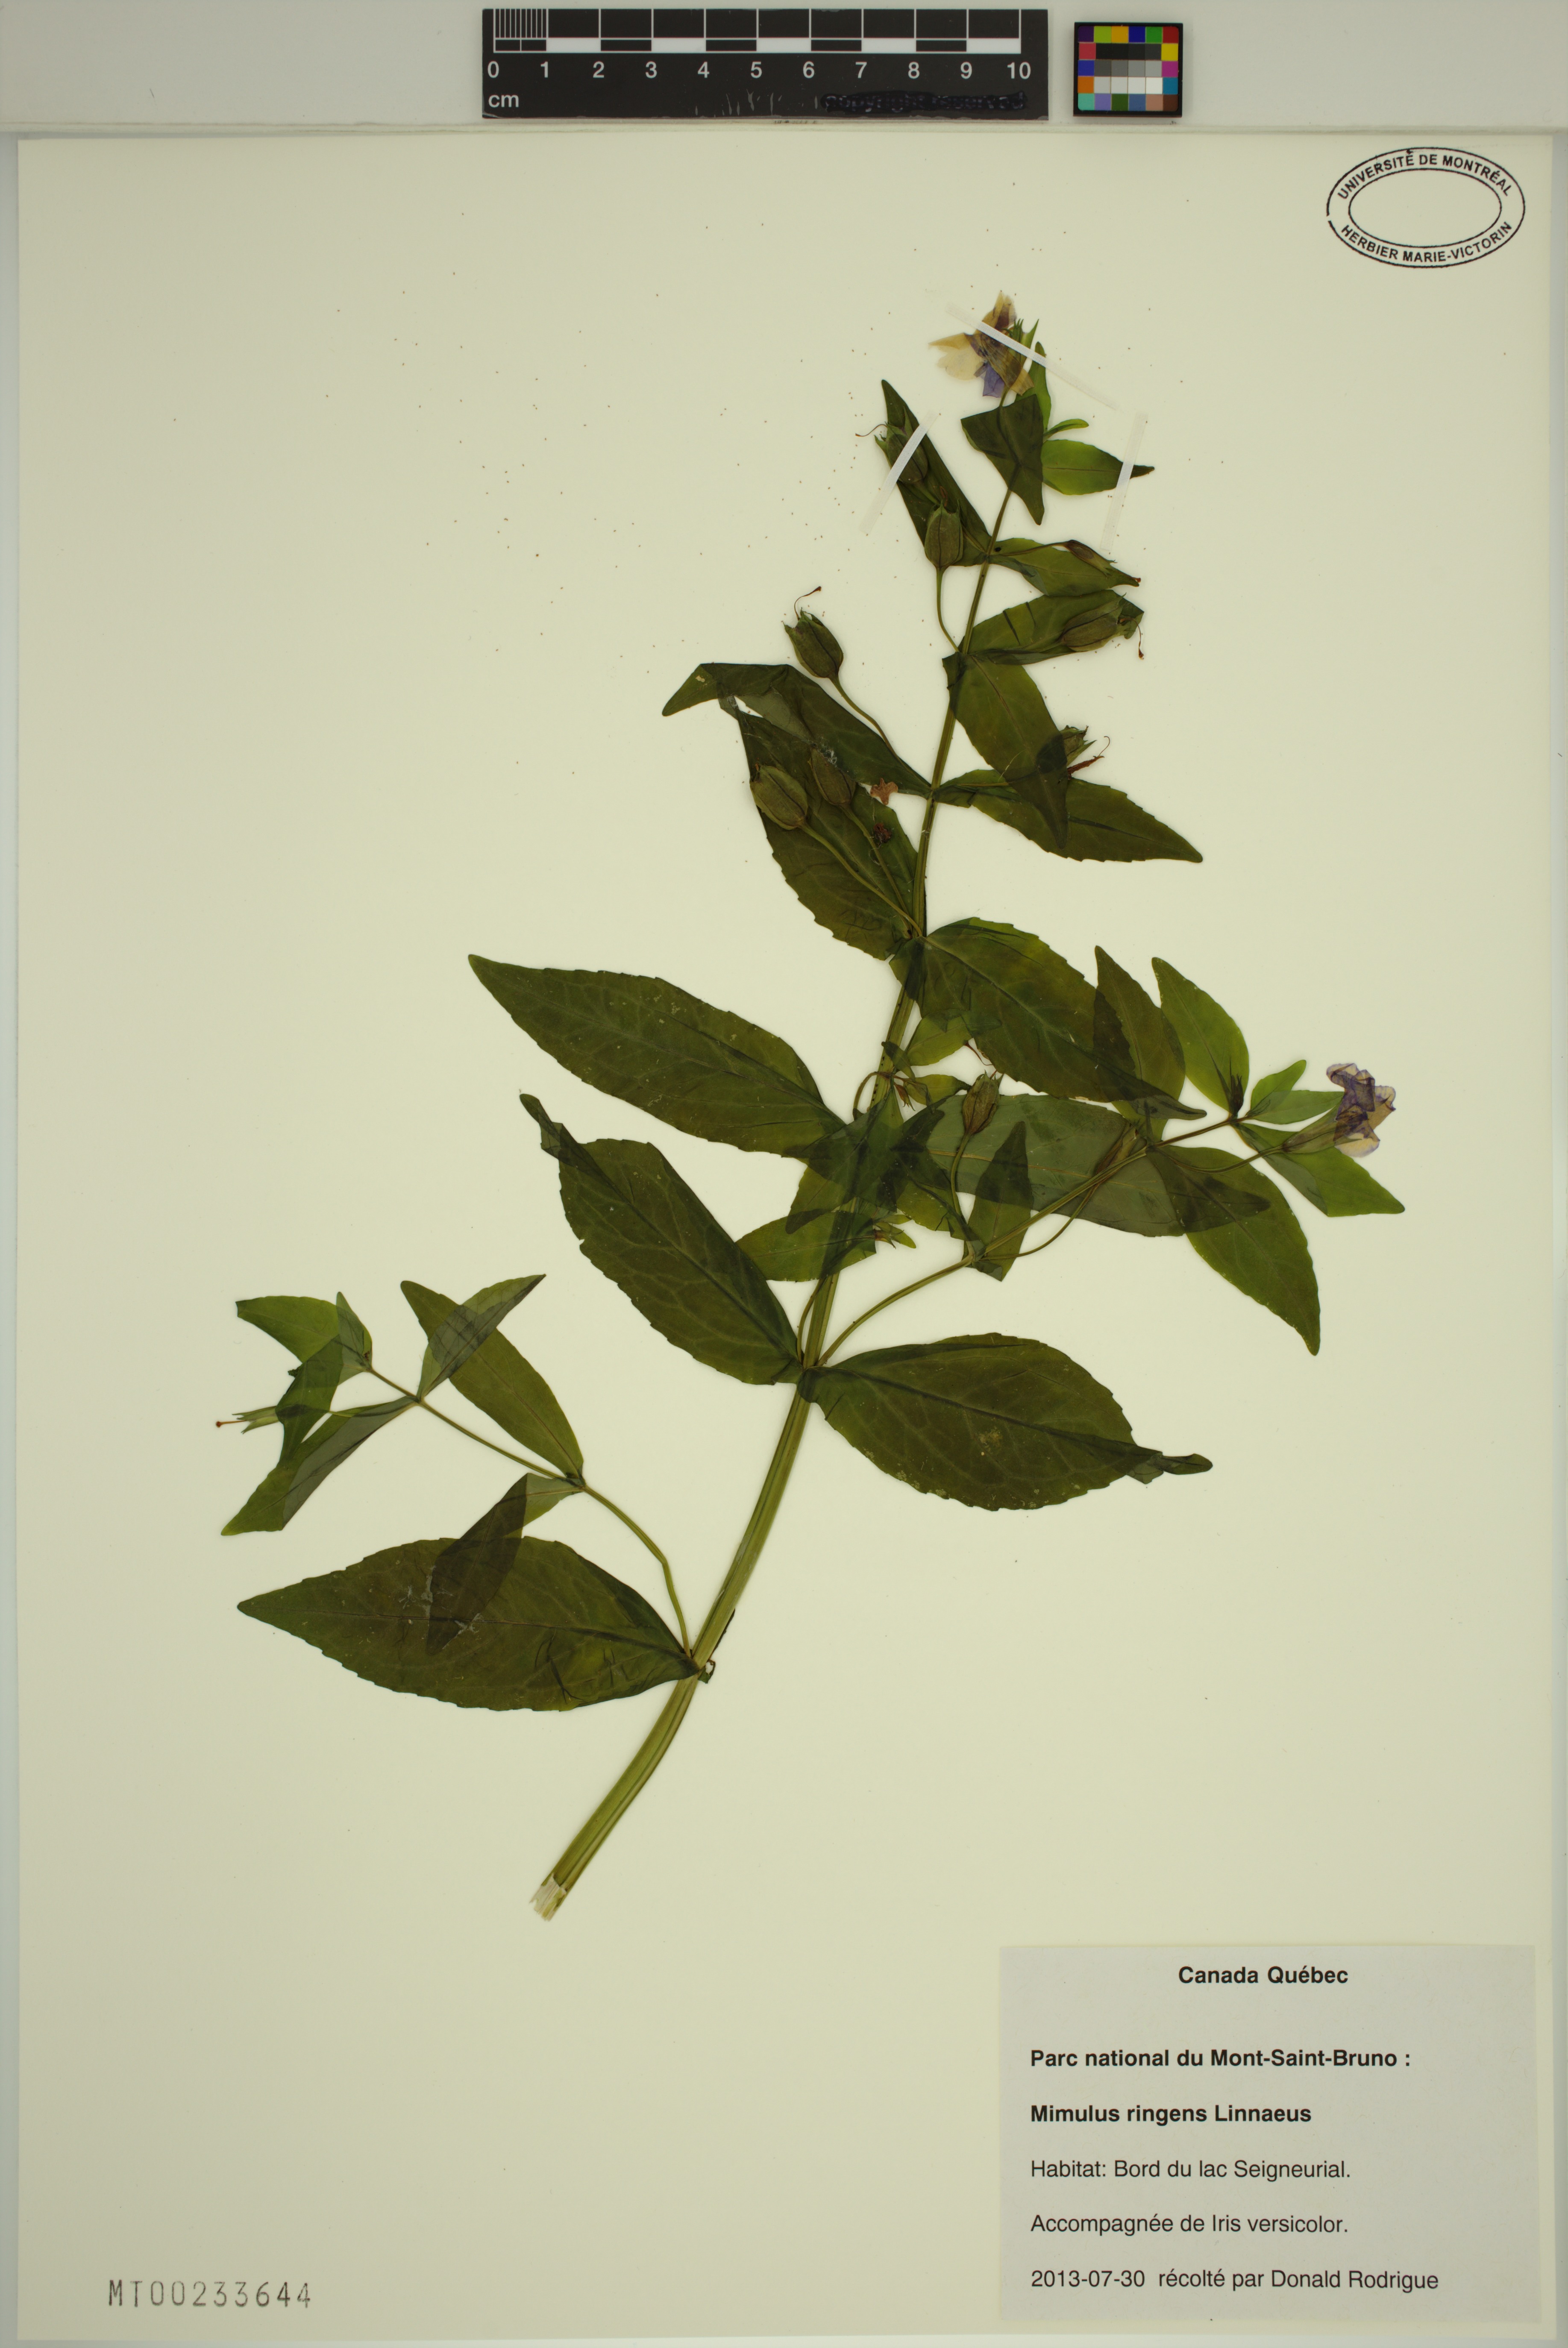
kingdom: Plantae
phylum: Tracheophyta
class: Magnoliopsida
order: Lamiales
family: Phrymaceae
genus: Mimulus
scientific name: Mimulus ringens
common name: Allegheny monkeyflower
